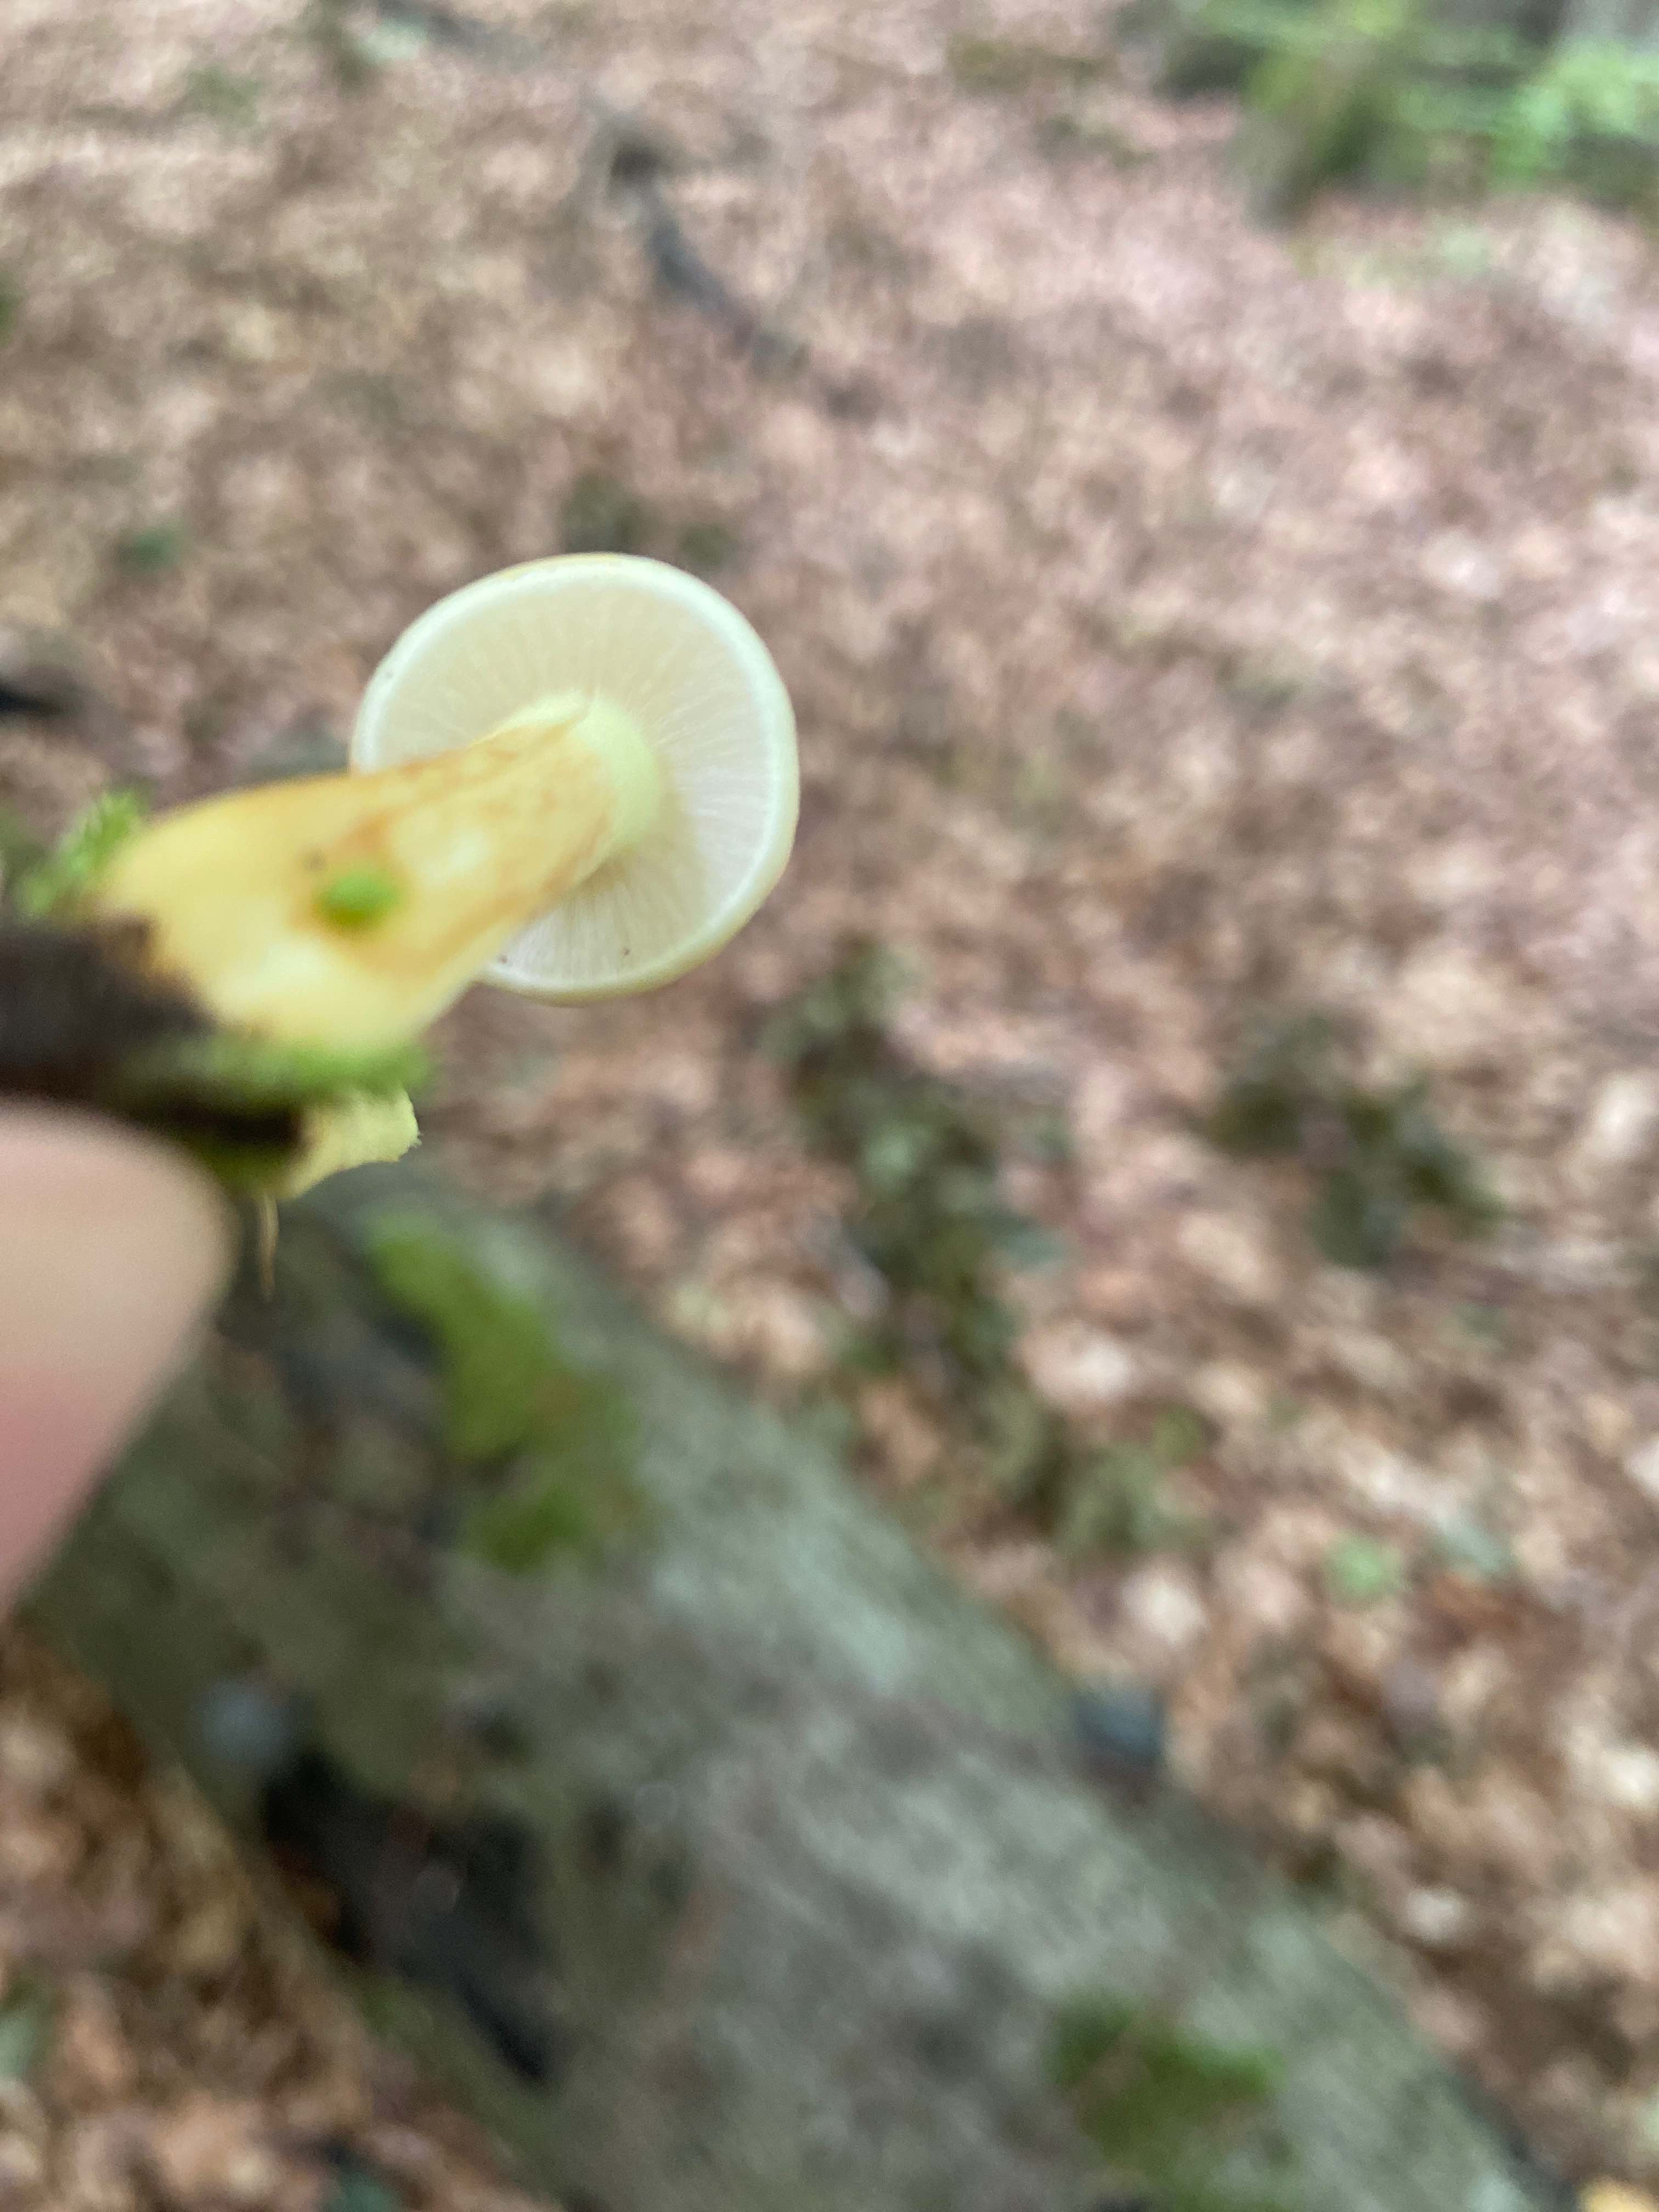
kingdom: Fungi
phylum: Basidiomycota
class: Agaricomycetes
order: Agaricales
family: Strophariaceae
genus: Hypholoma
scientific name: Hypholoma fasciculare
